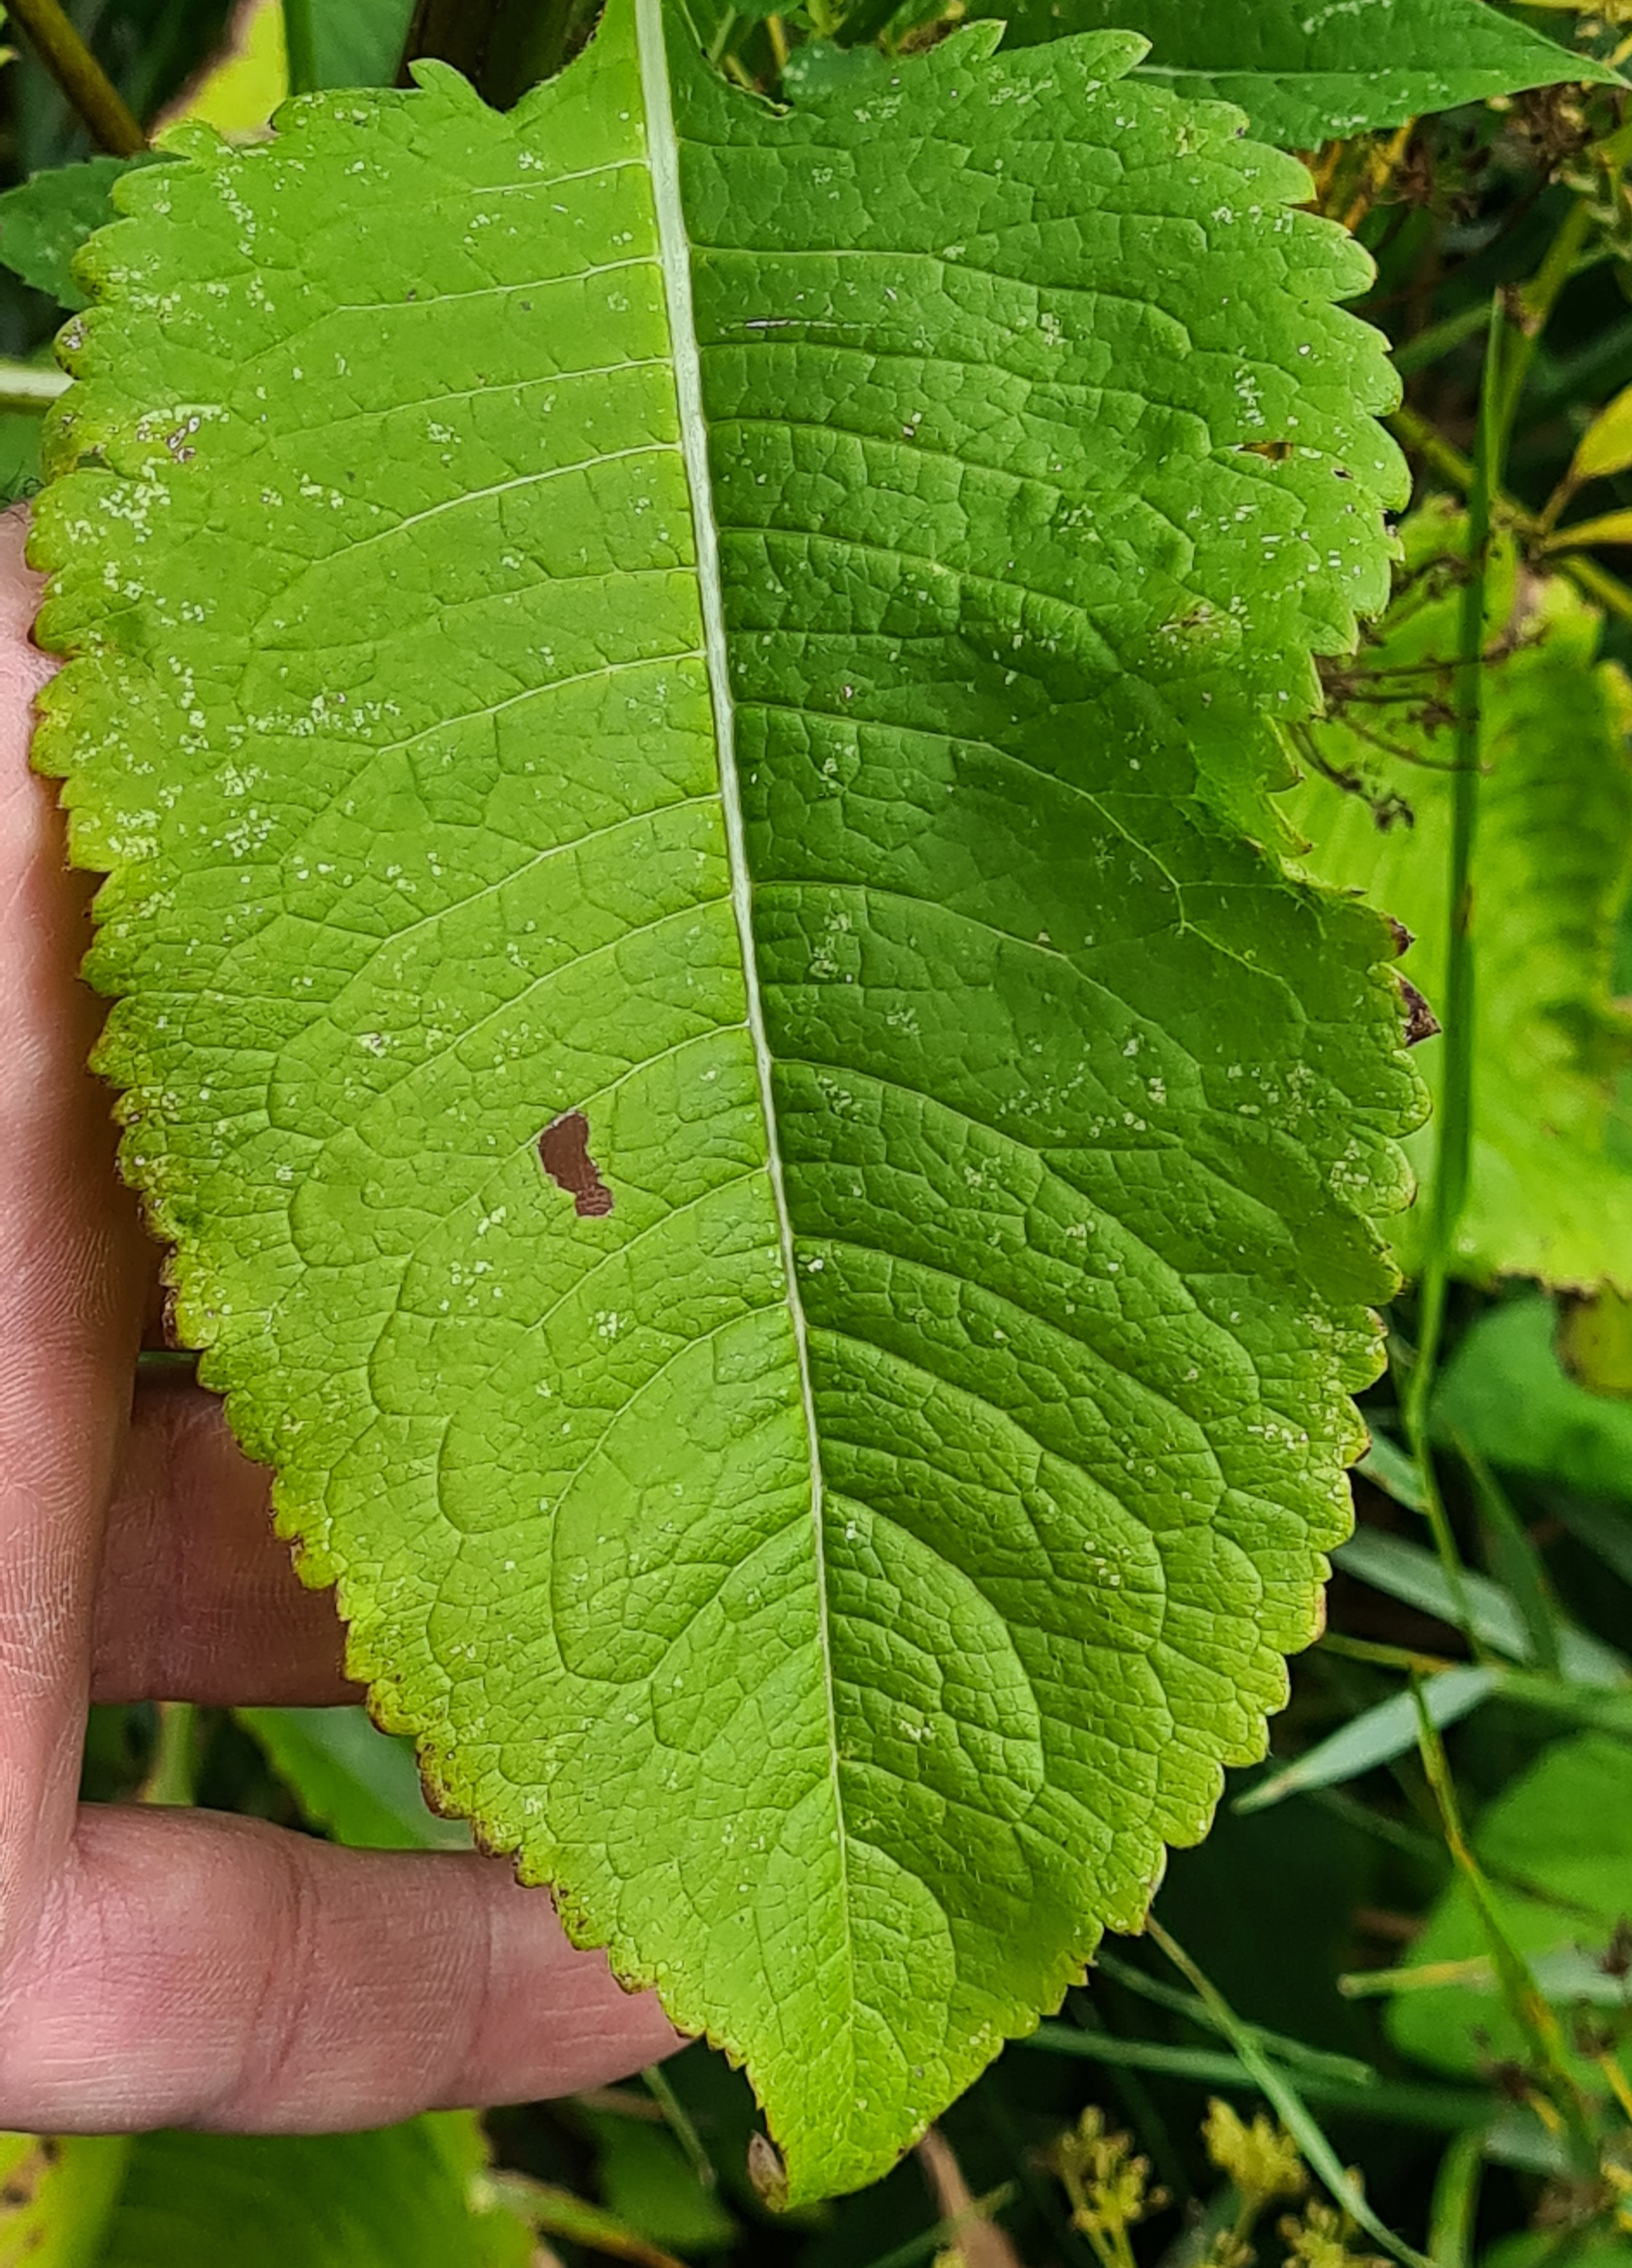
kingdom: Plantae
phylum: Tracheophyta
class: Magnoliopsida
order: Dipsacales
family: Caprifoliaceae
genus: Dipsacus
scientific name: Dipsacus strigosus
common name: Pindsvin-kartebolle
